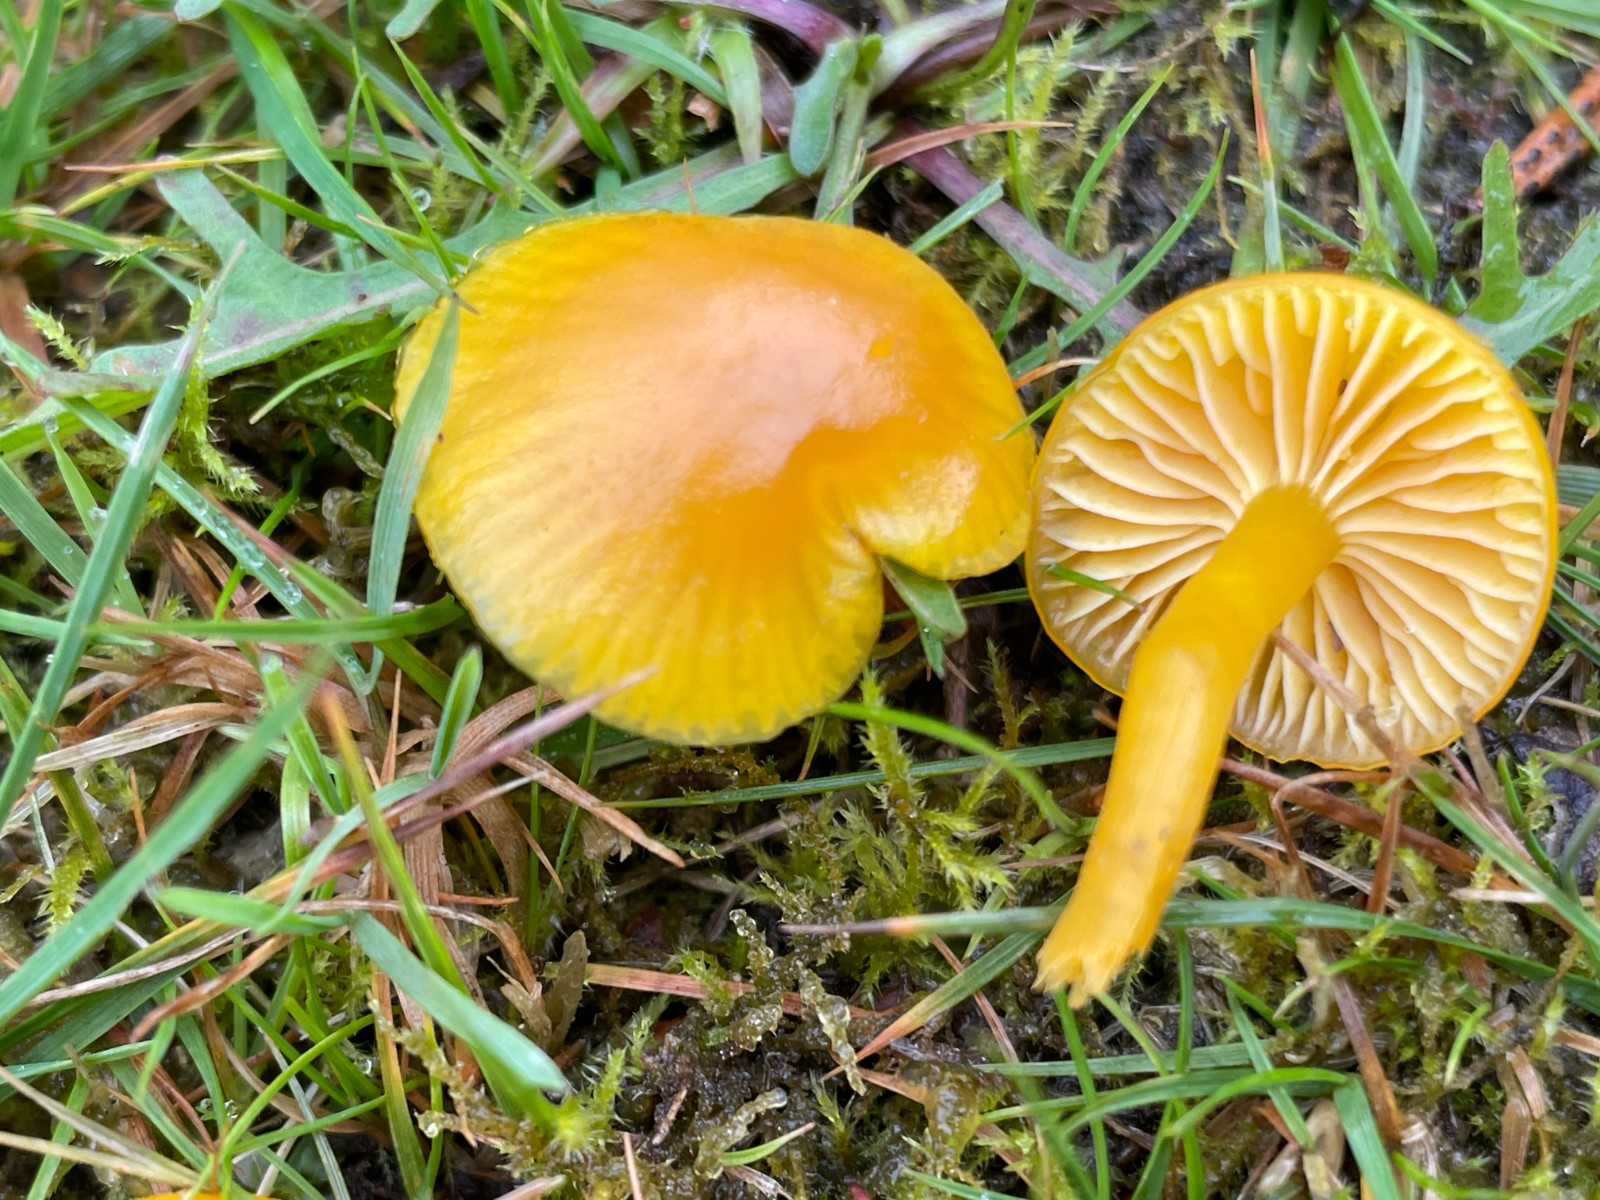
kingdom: Fungi
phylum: Basidiomycota
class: Agaricomycetes
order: Agaricales
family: Hygrophoraceae
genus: Hygrocybe
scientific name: Hygrocybe ceracea
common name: voksgul vokshat
